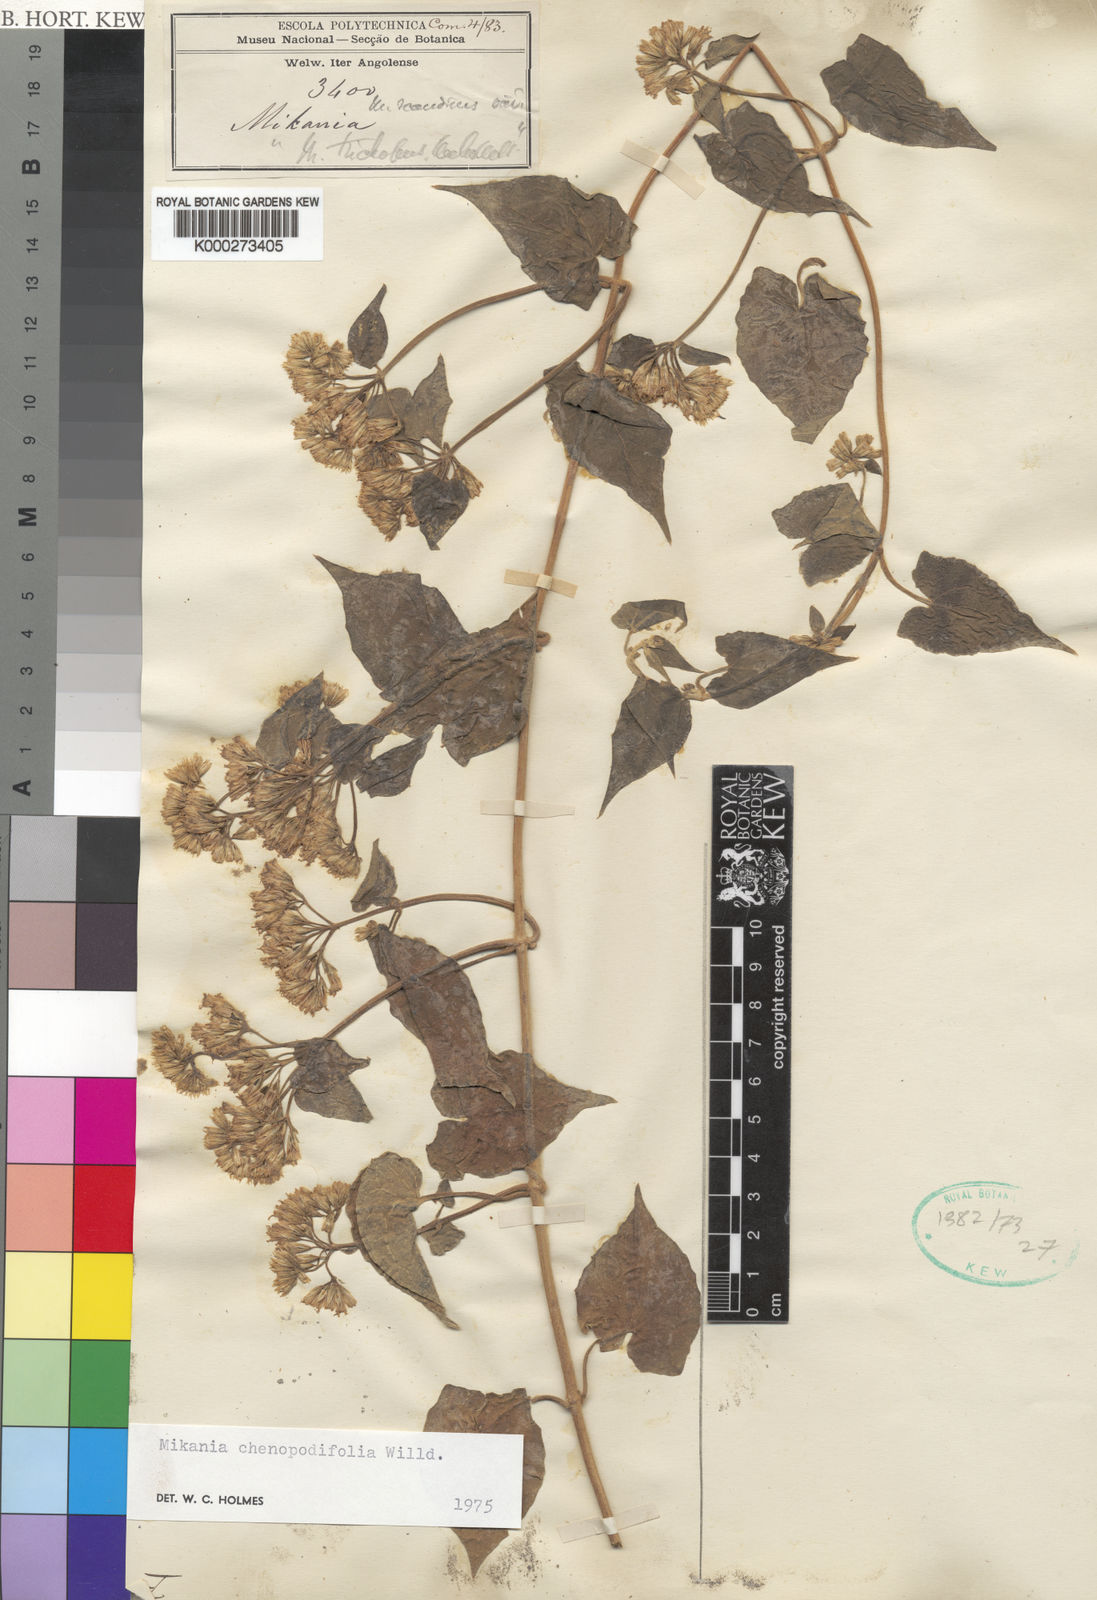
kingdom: Plantae
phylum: Tracheophyta
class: Magnoliopsida
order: Asterales
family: Asteraceae
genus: Mikania
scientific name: Mikania chenopodifolia
